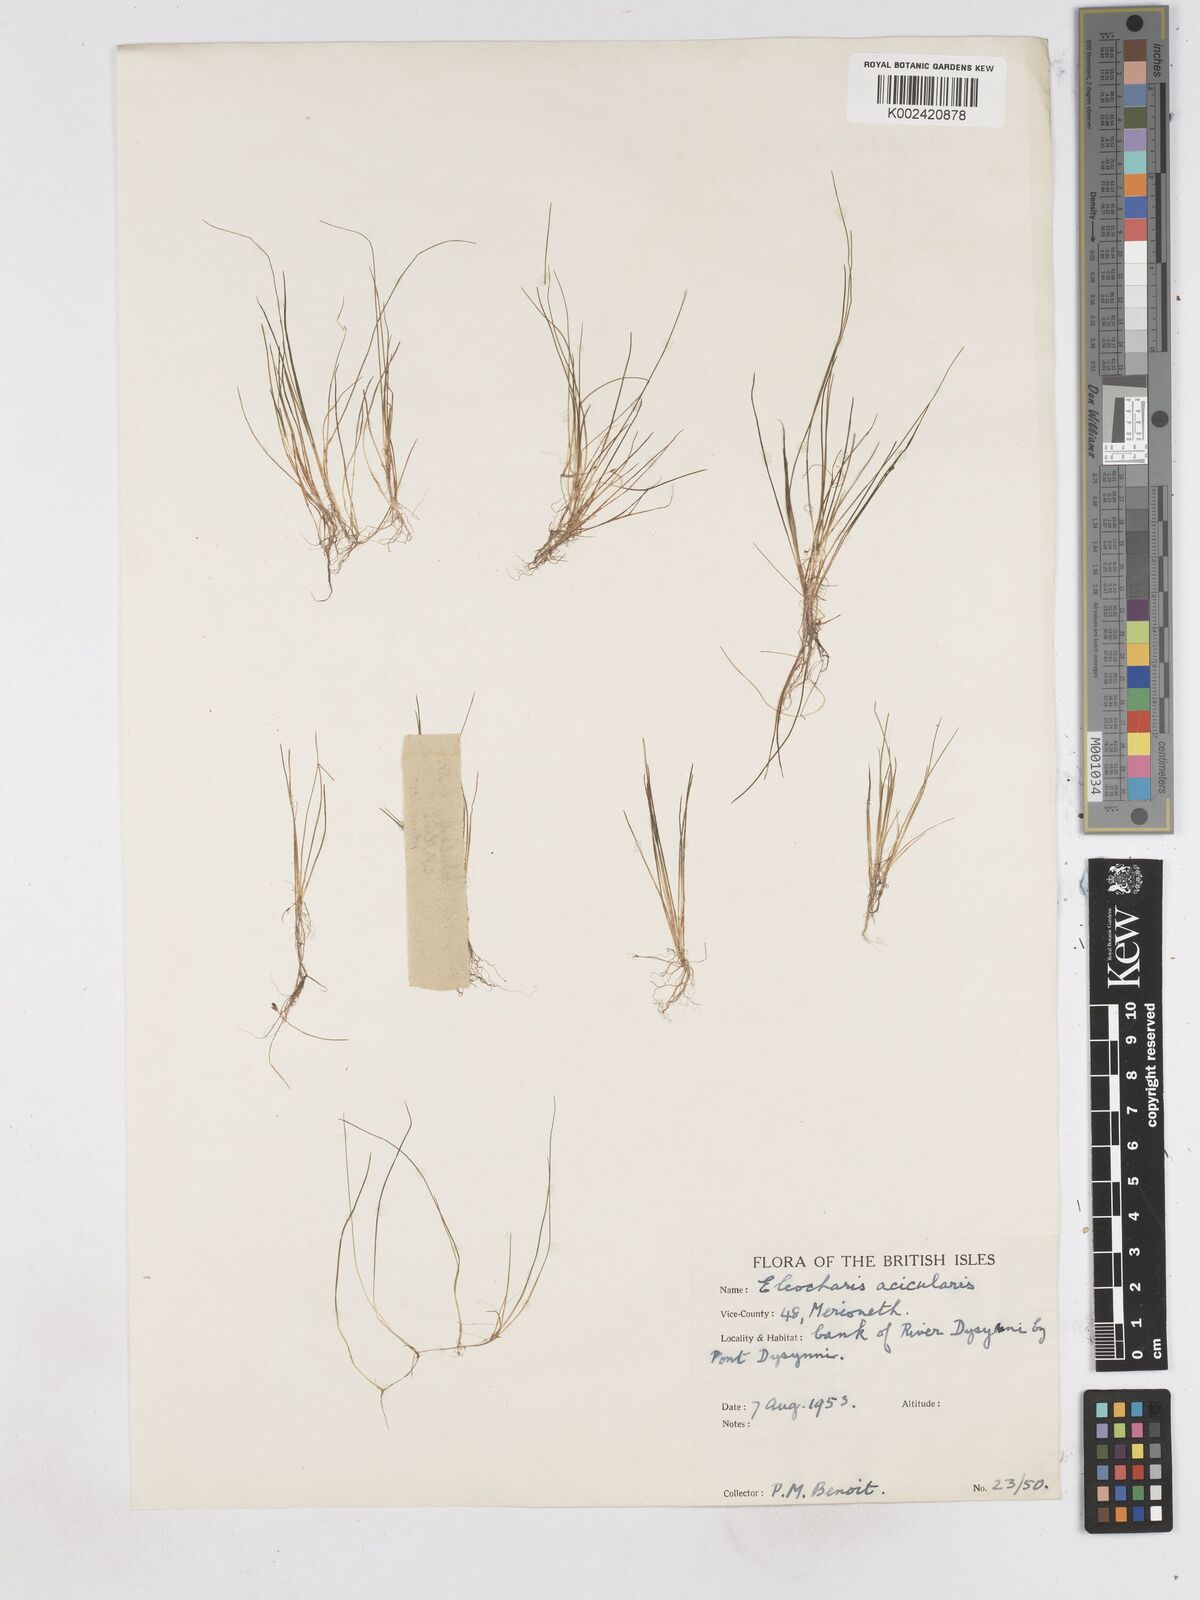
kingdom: Plantae
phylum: Tracheophyta
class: Liliopsida
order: Poales
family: Cyperaceae
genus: Eleocharis
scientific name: Eleocharis acicularis
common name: Needle spike-rush
